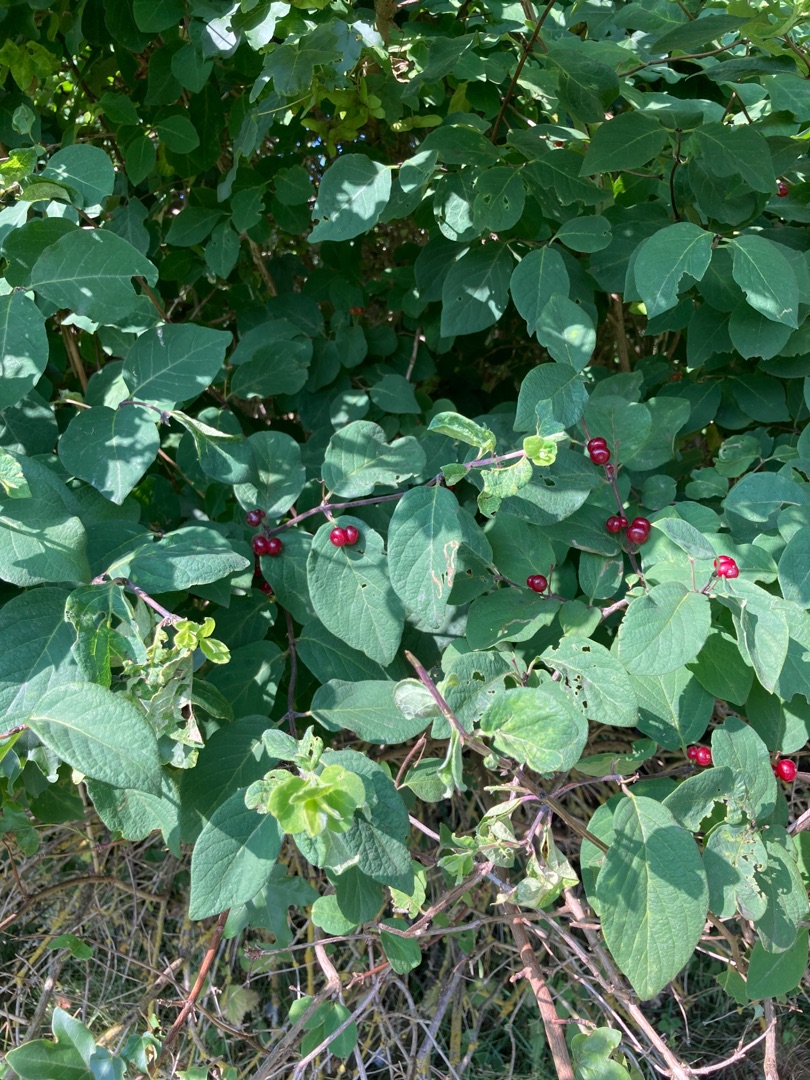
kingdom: Plantae
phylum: Tracheophyta
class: Magnoliopsida
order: Dipsacales
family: Caprifoliaceae
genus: Lonicera
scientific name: Lonicera xylosteum
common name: Dunet gedeblad
